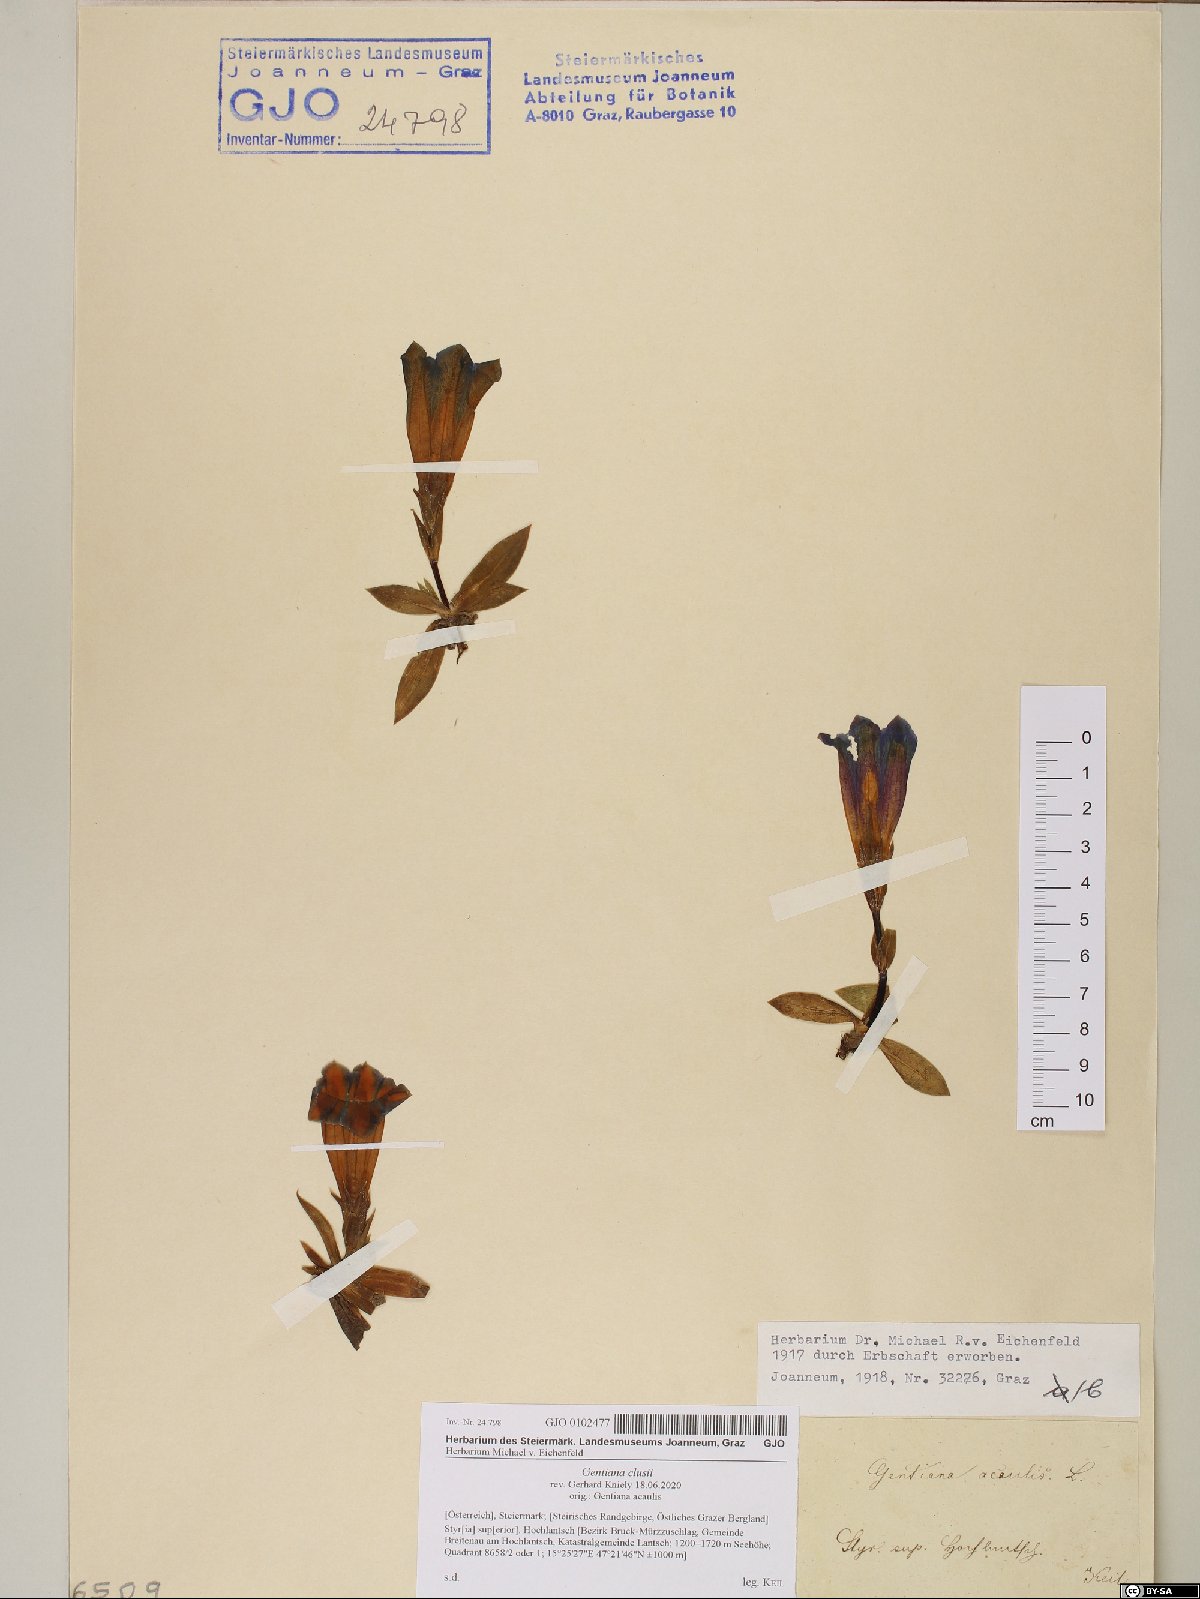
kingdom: Plantae
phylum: Tracheophyta
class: Magnoliopsida
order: Gentianales
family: Gentianaceae
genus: Gentiana
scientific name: Gentiana clusii
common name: Trumpet gentian
